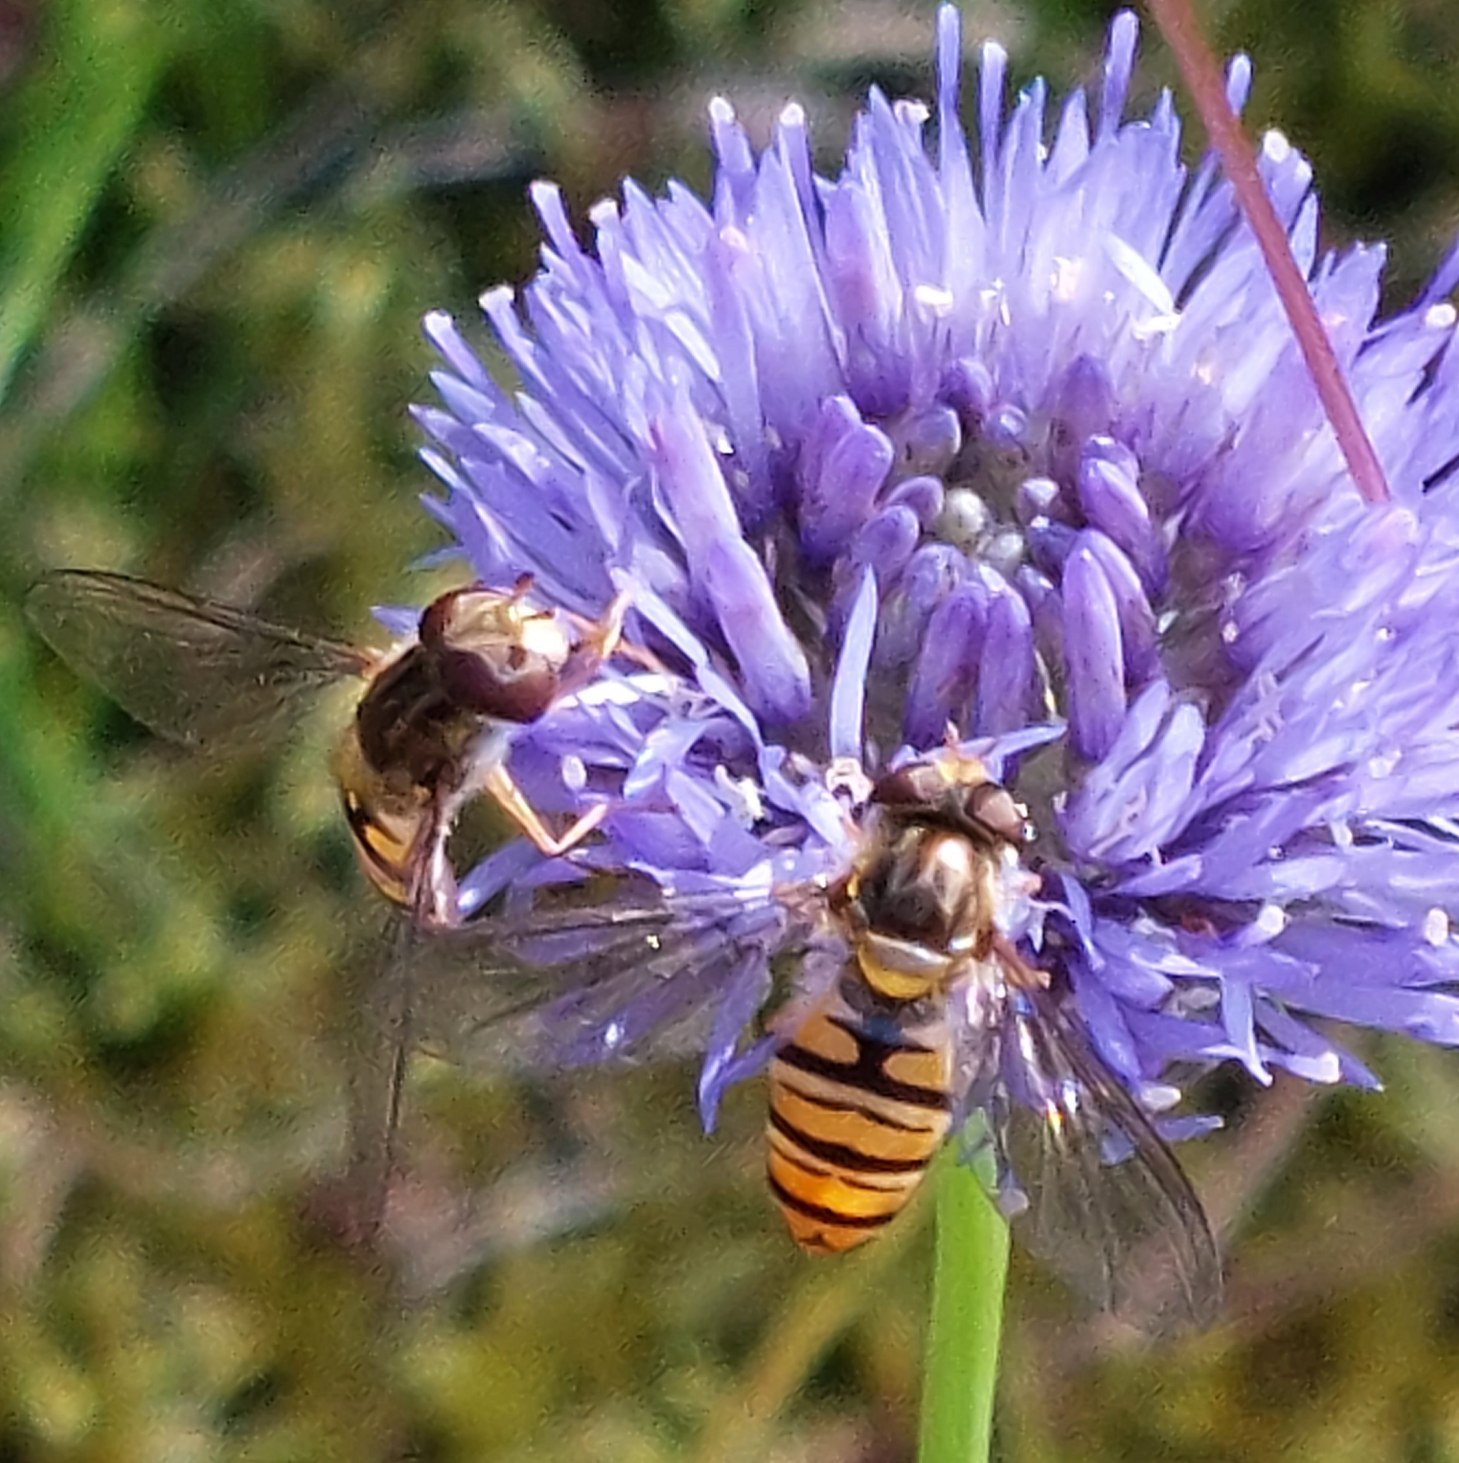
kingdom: Animalia
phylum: Arthropoda
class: Insecta
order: Diptera
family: Syrphidae
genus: Episyrphus
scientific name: Episyrphus balteatus
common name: Dobbeltbåndet svirreflue
